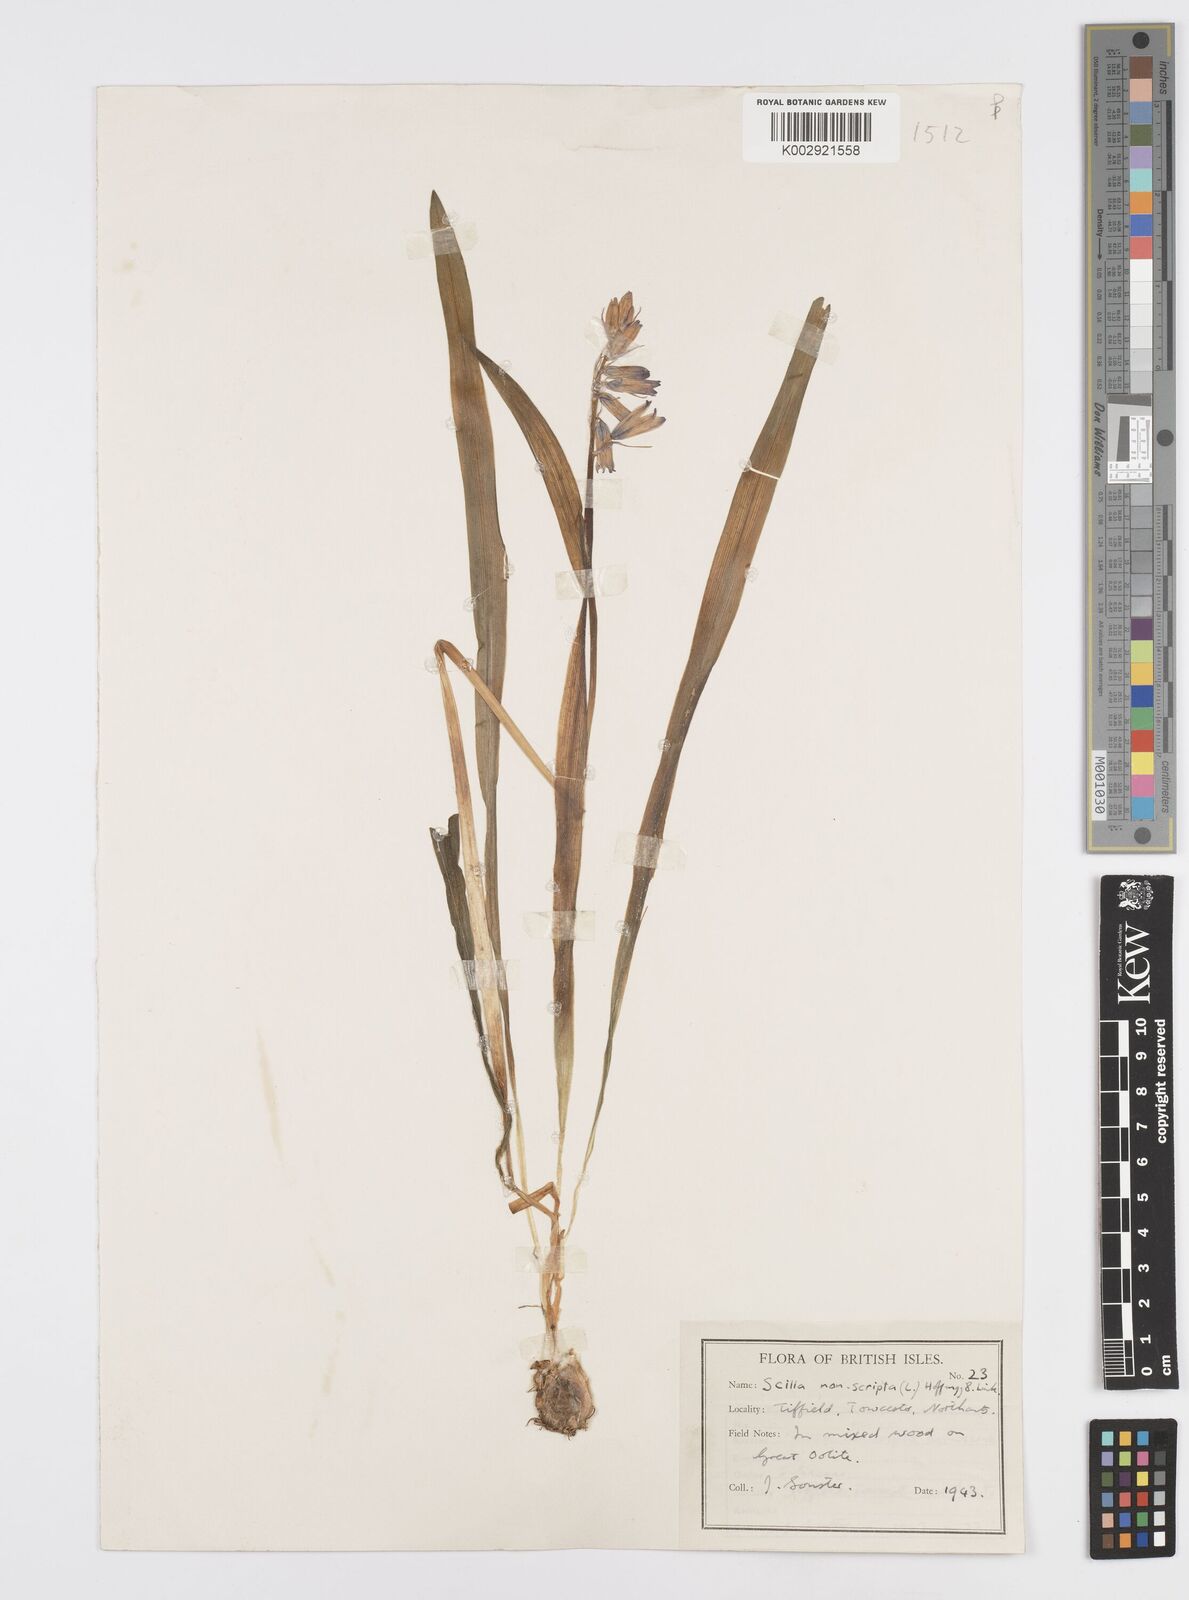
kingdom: Plantae
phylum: Tracheophyta
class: Liliopsida
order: Asparagales
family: Asparagaceae
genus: Hyacinthoides
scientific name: Hyacinthoides non-scripta
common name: Bluebell
